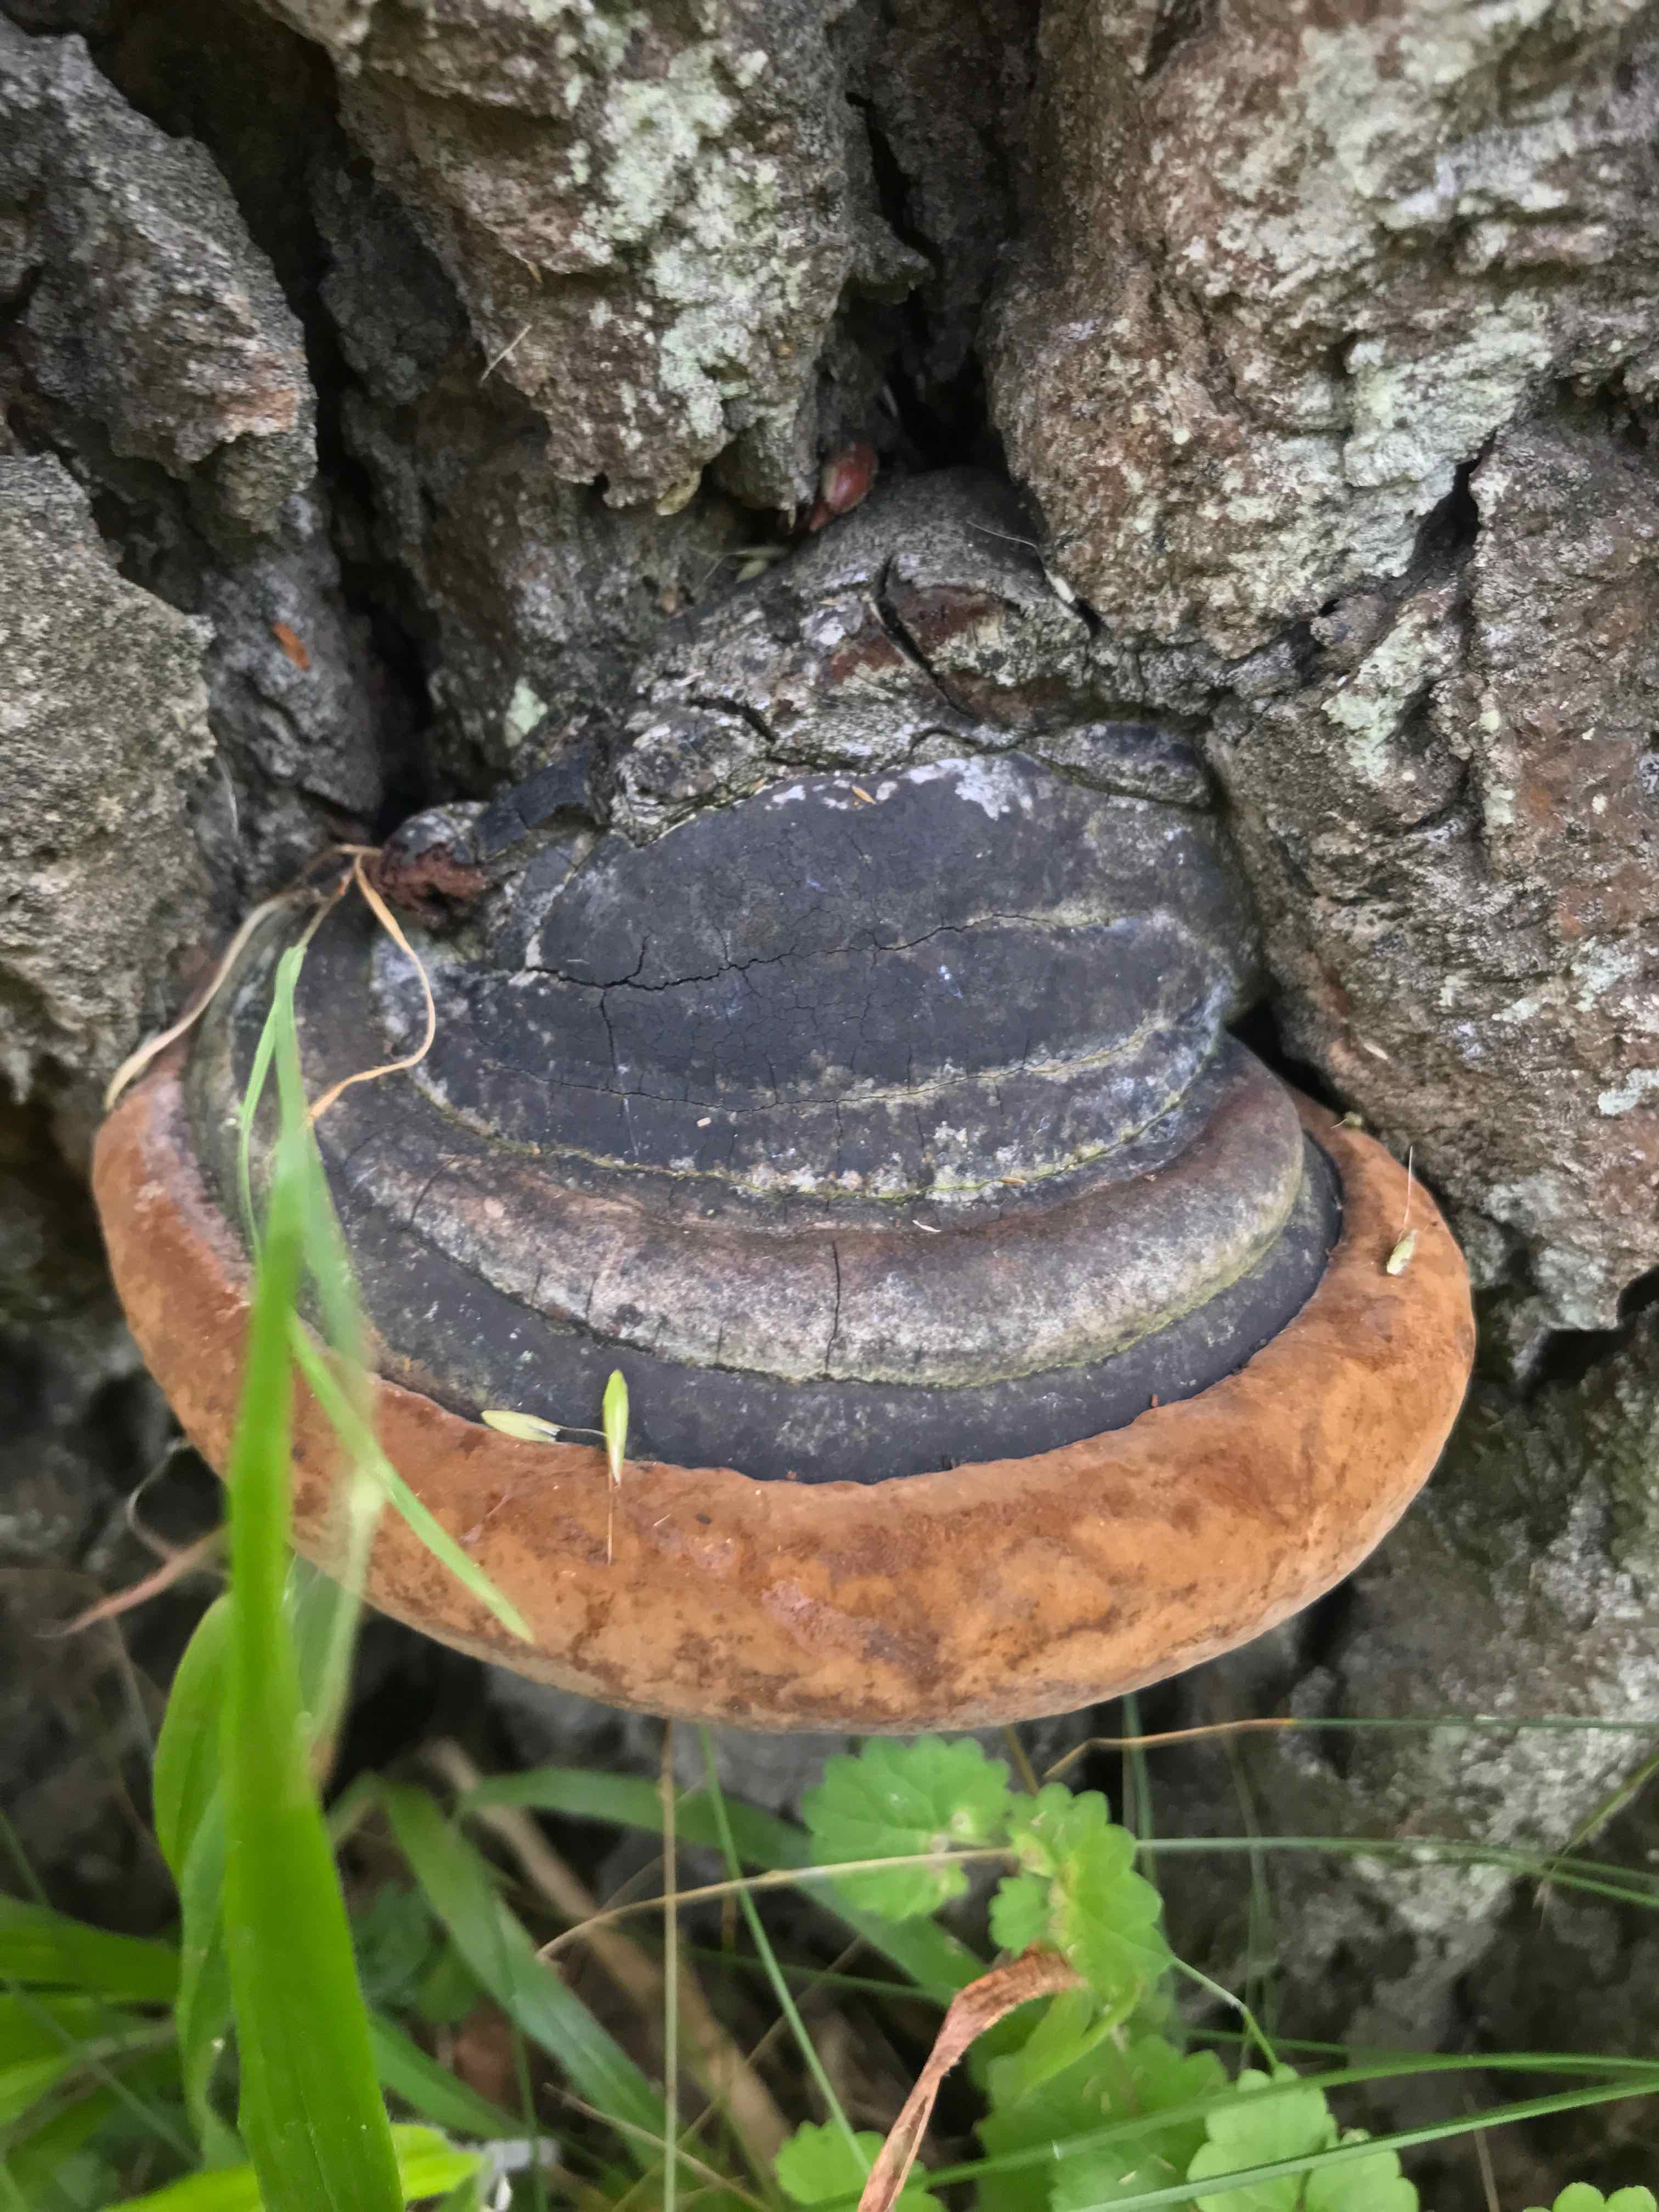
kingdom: Fungi
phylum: Basidiomycota
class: Agaricomycetes
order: Hymenochaetales
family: Hymenochaetaceae
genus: Phellinus
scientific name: Phellinus populicola
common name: poppel-ildporesvamp
